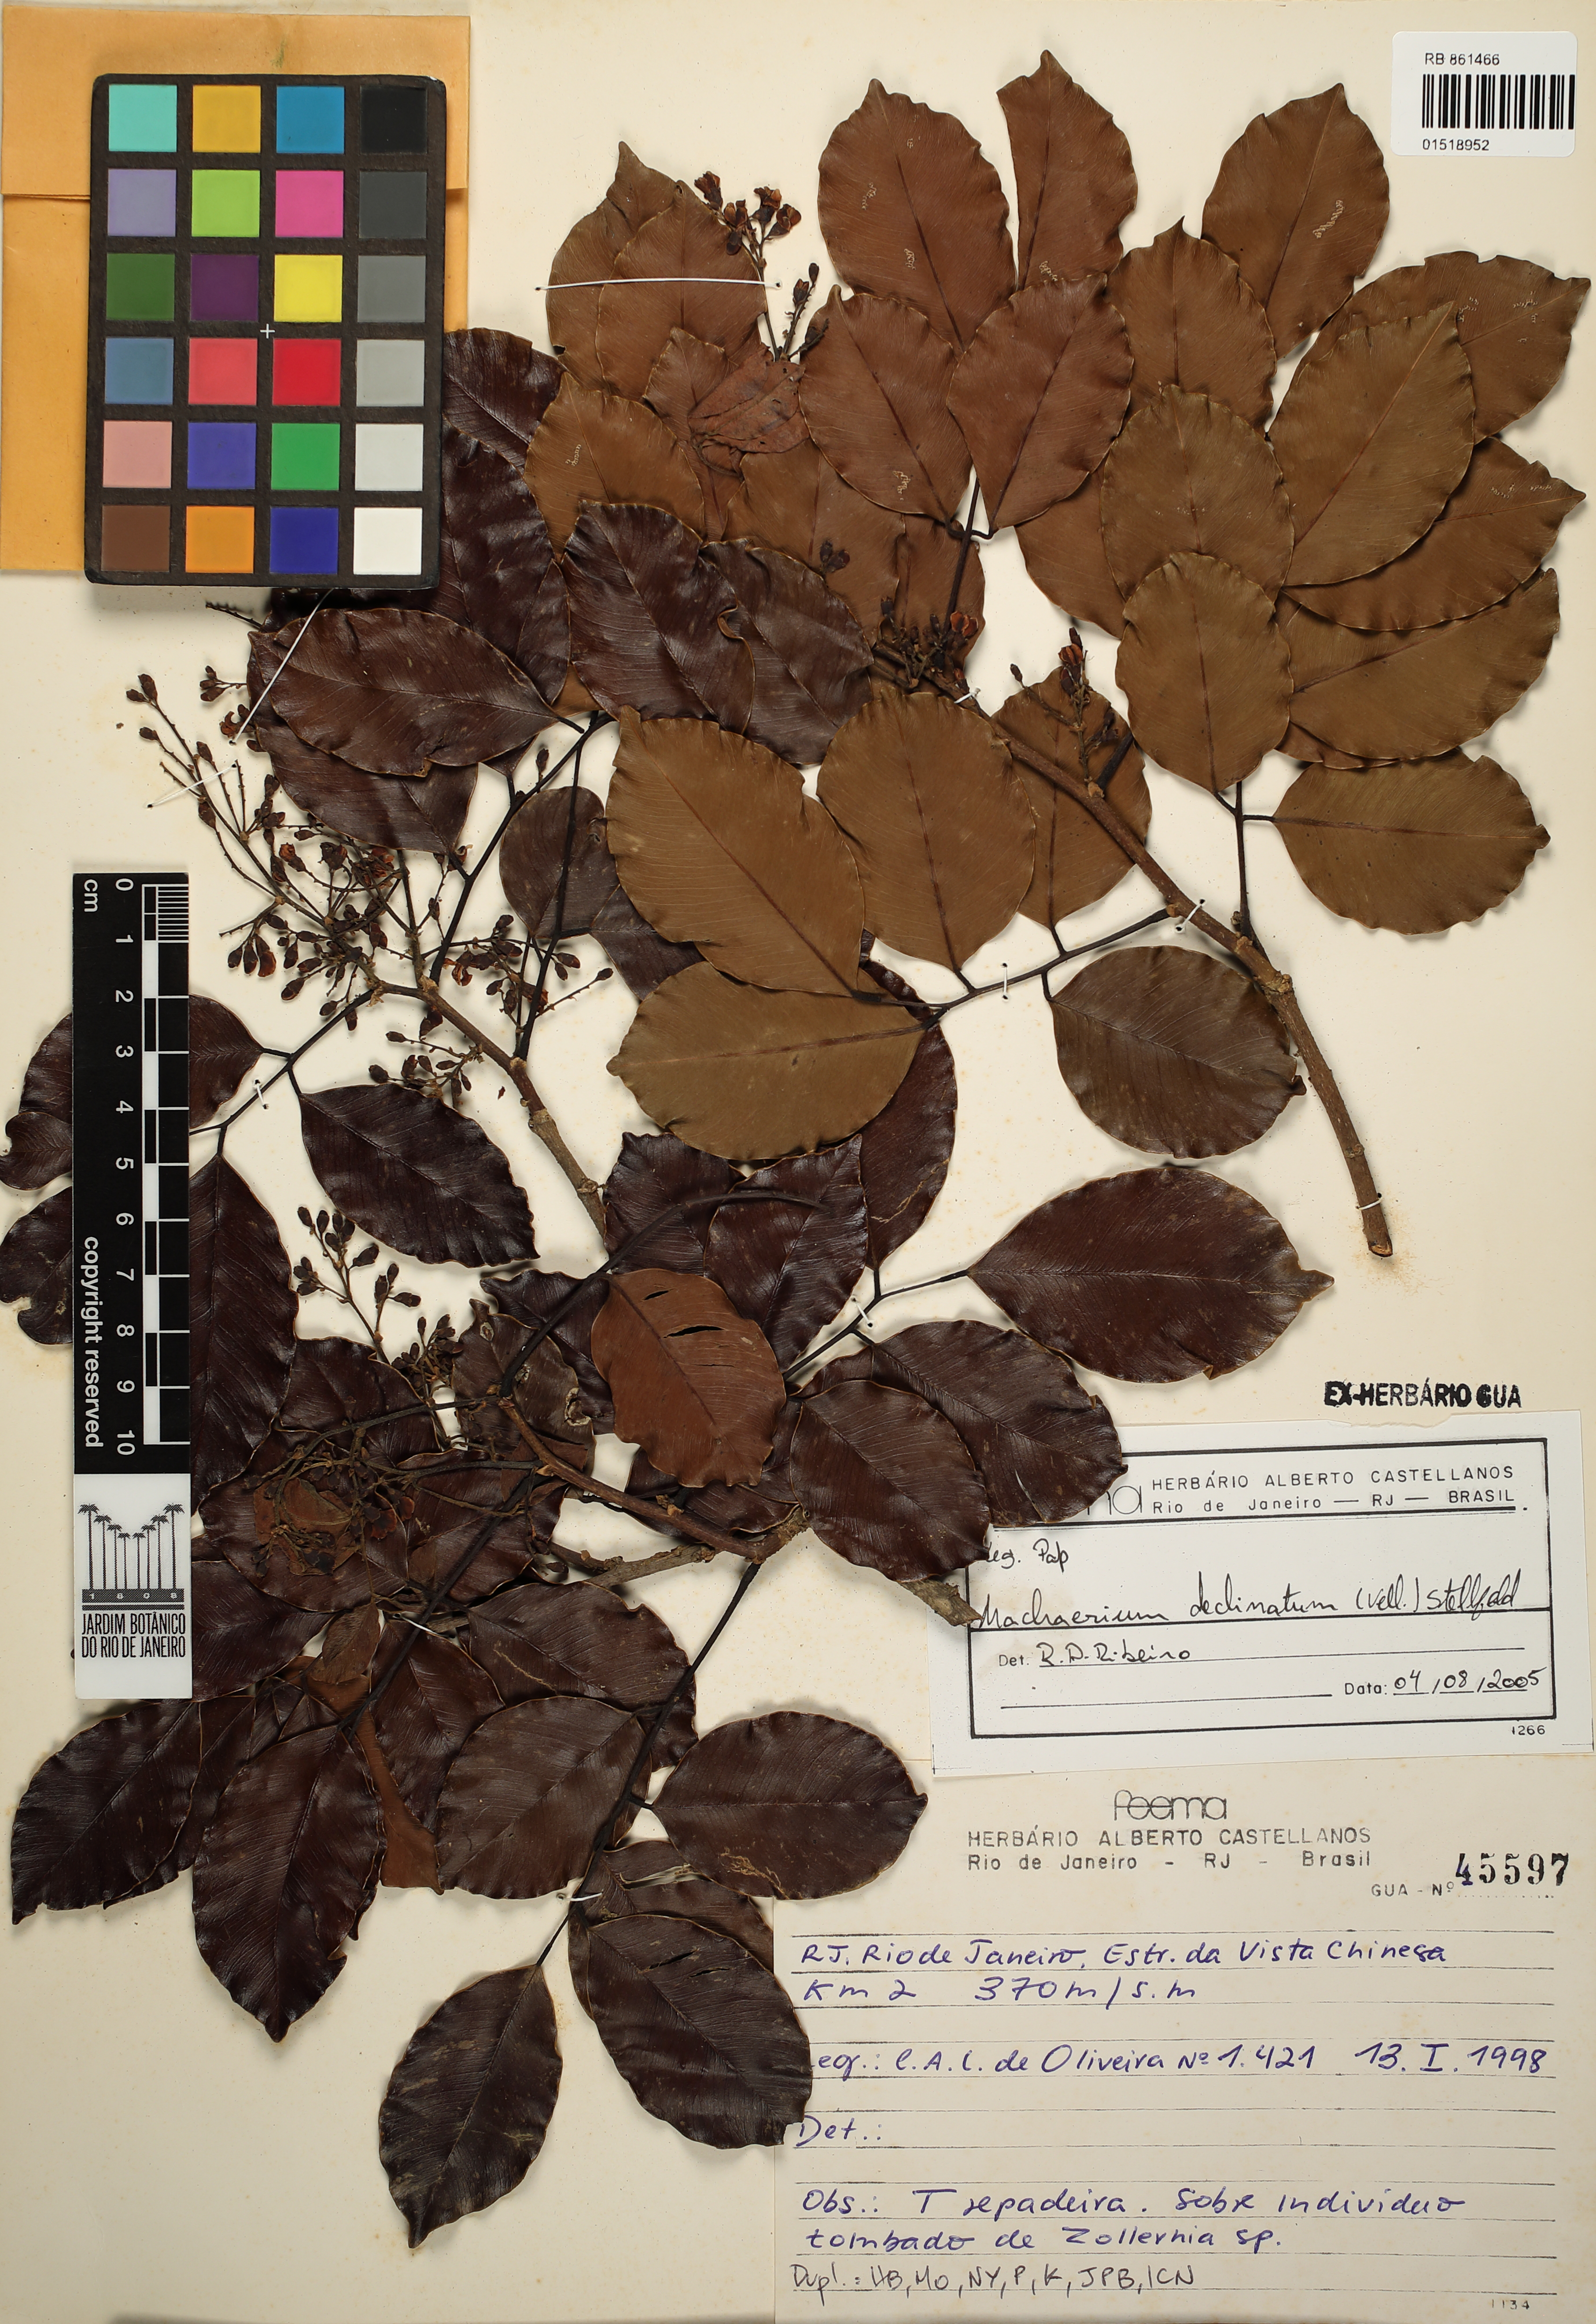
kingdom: Plantae
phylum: Tracheophyta
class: Magnoliopsida
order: Fabales
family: Fabaceae
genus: Machaerium
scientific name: Machaerium declinatum
